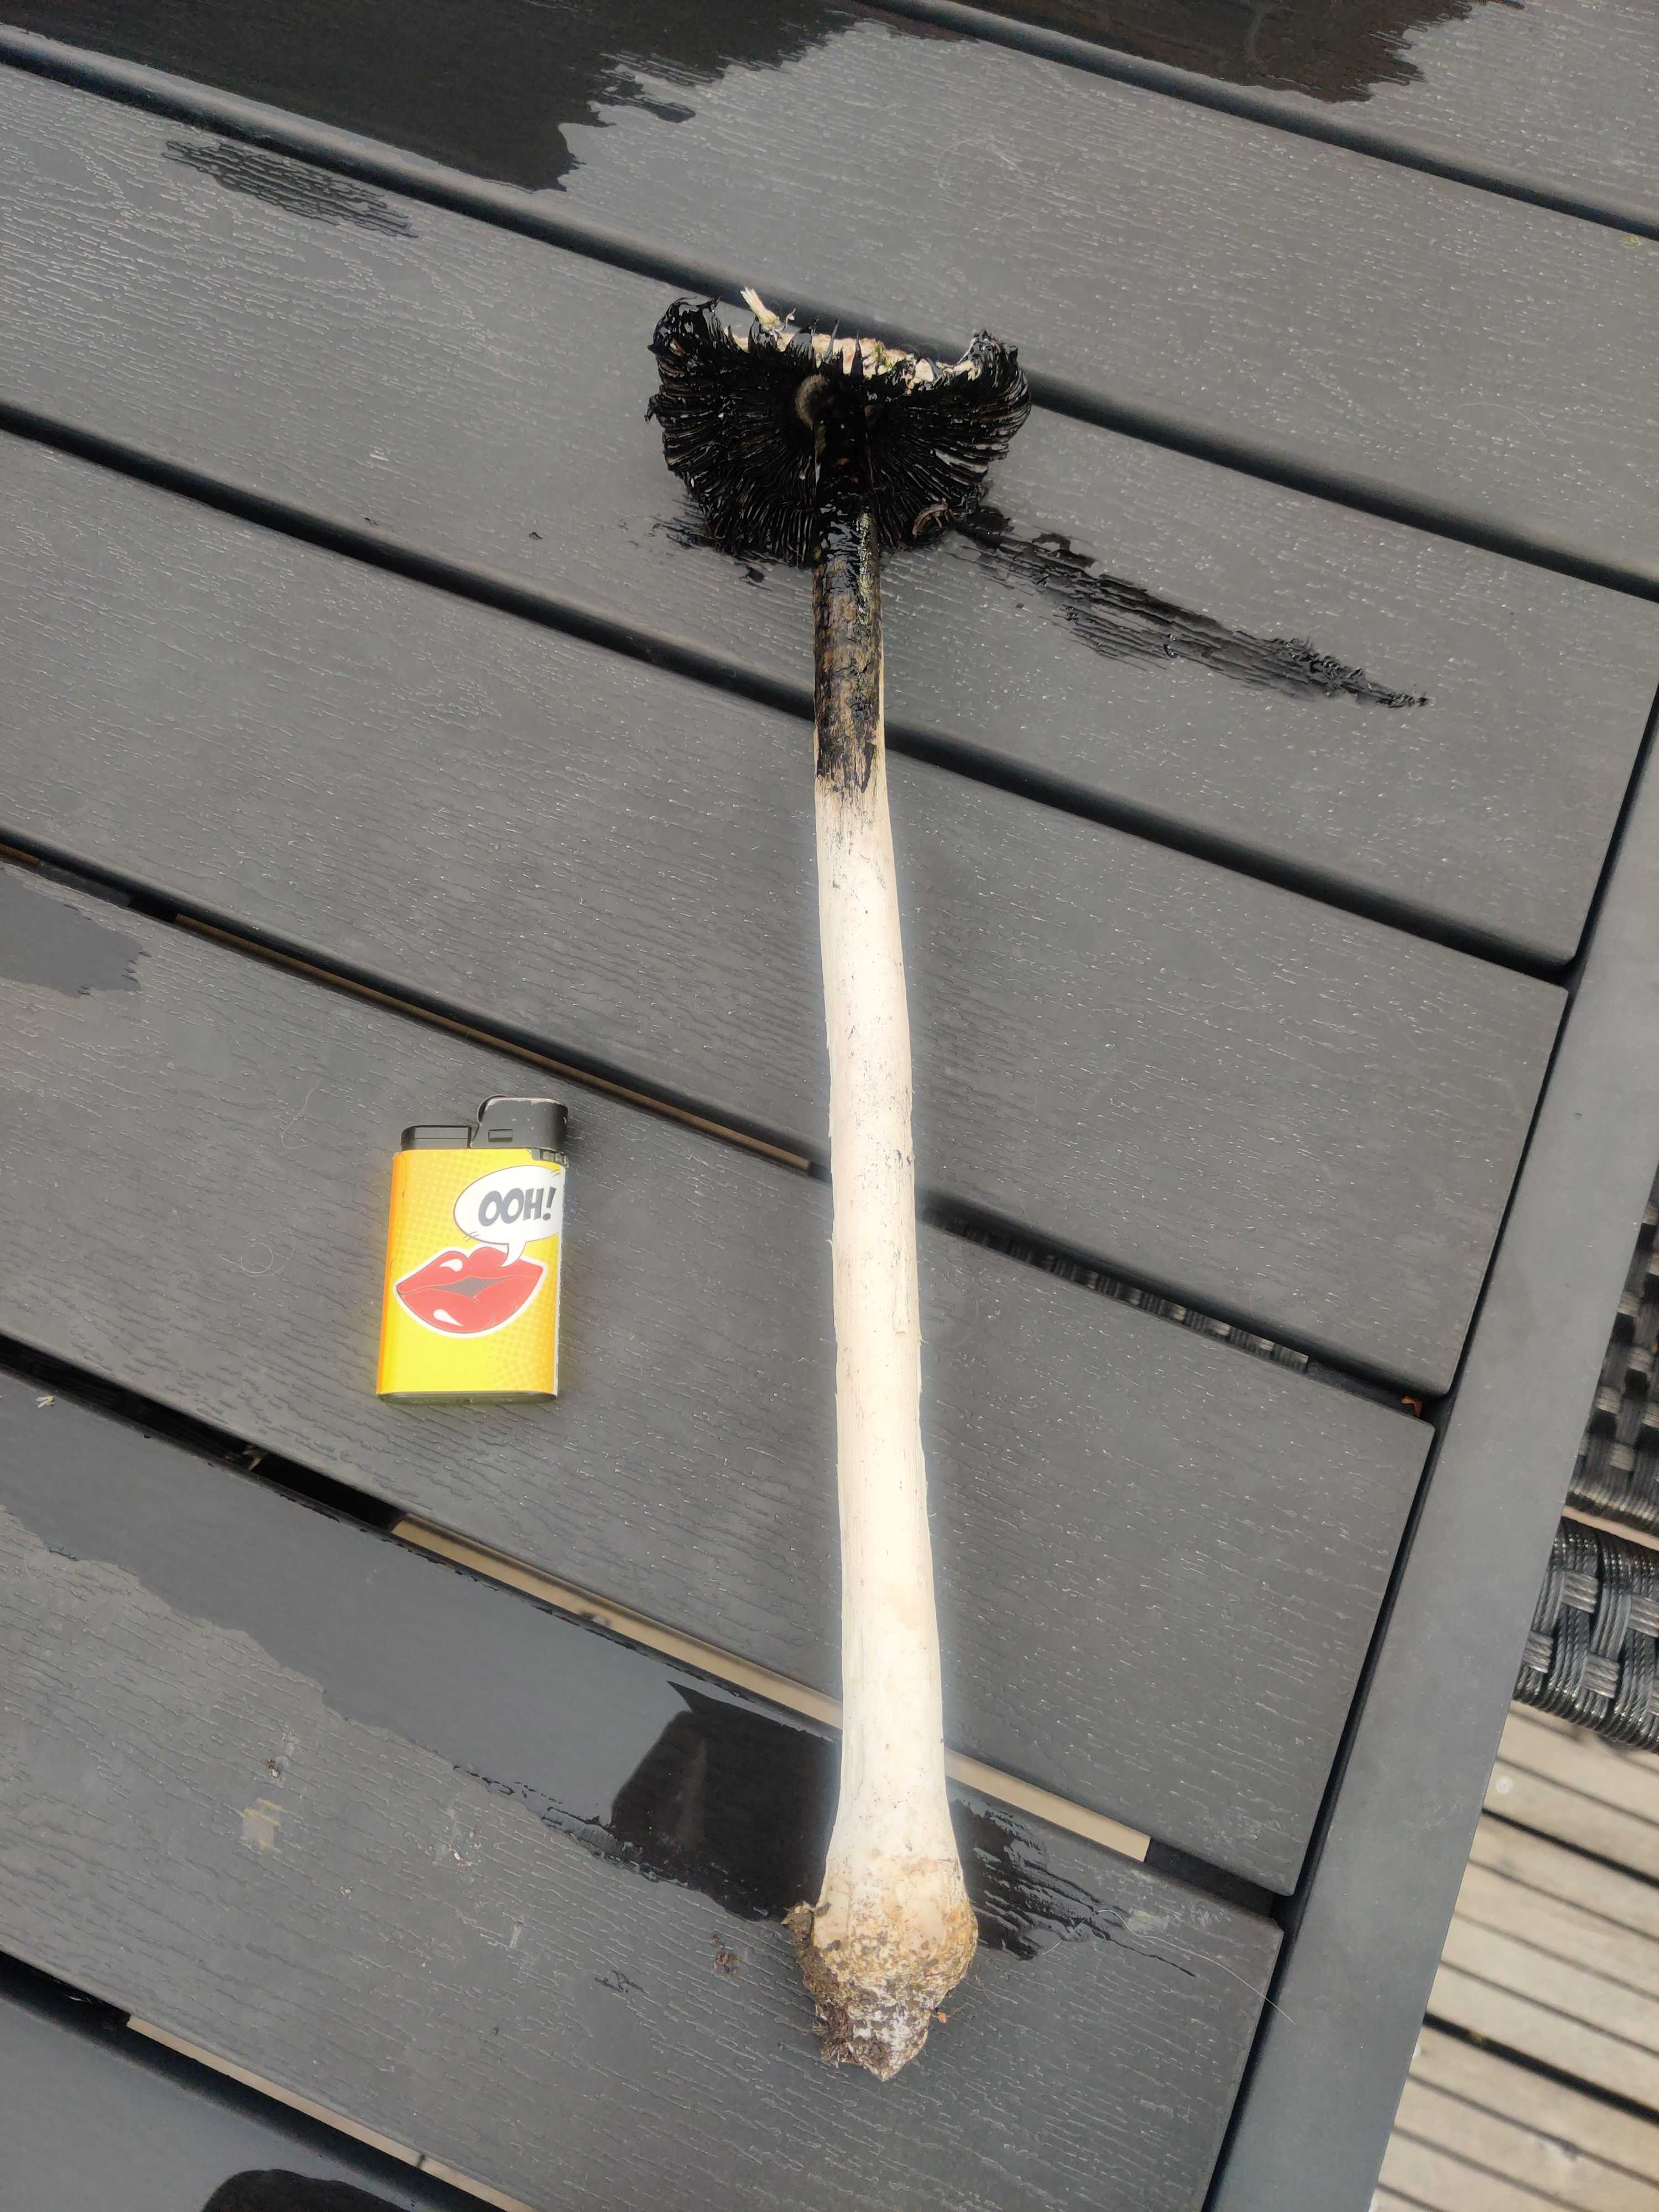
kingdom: Fungi
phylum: Basidiomycota
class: Agaricomycetes
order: Agaricales
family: Agaricaceae
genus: Coprinus
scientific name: Coprinus comatus
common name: stor parykhat
